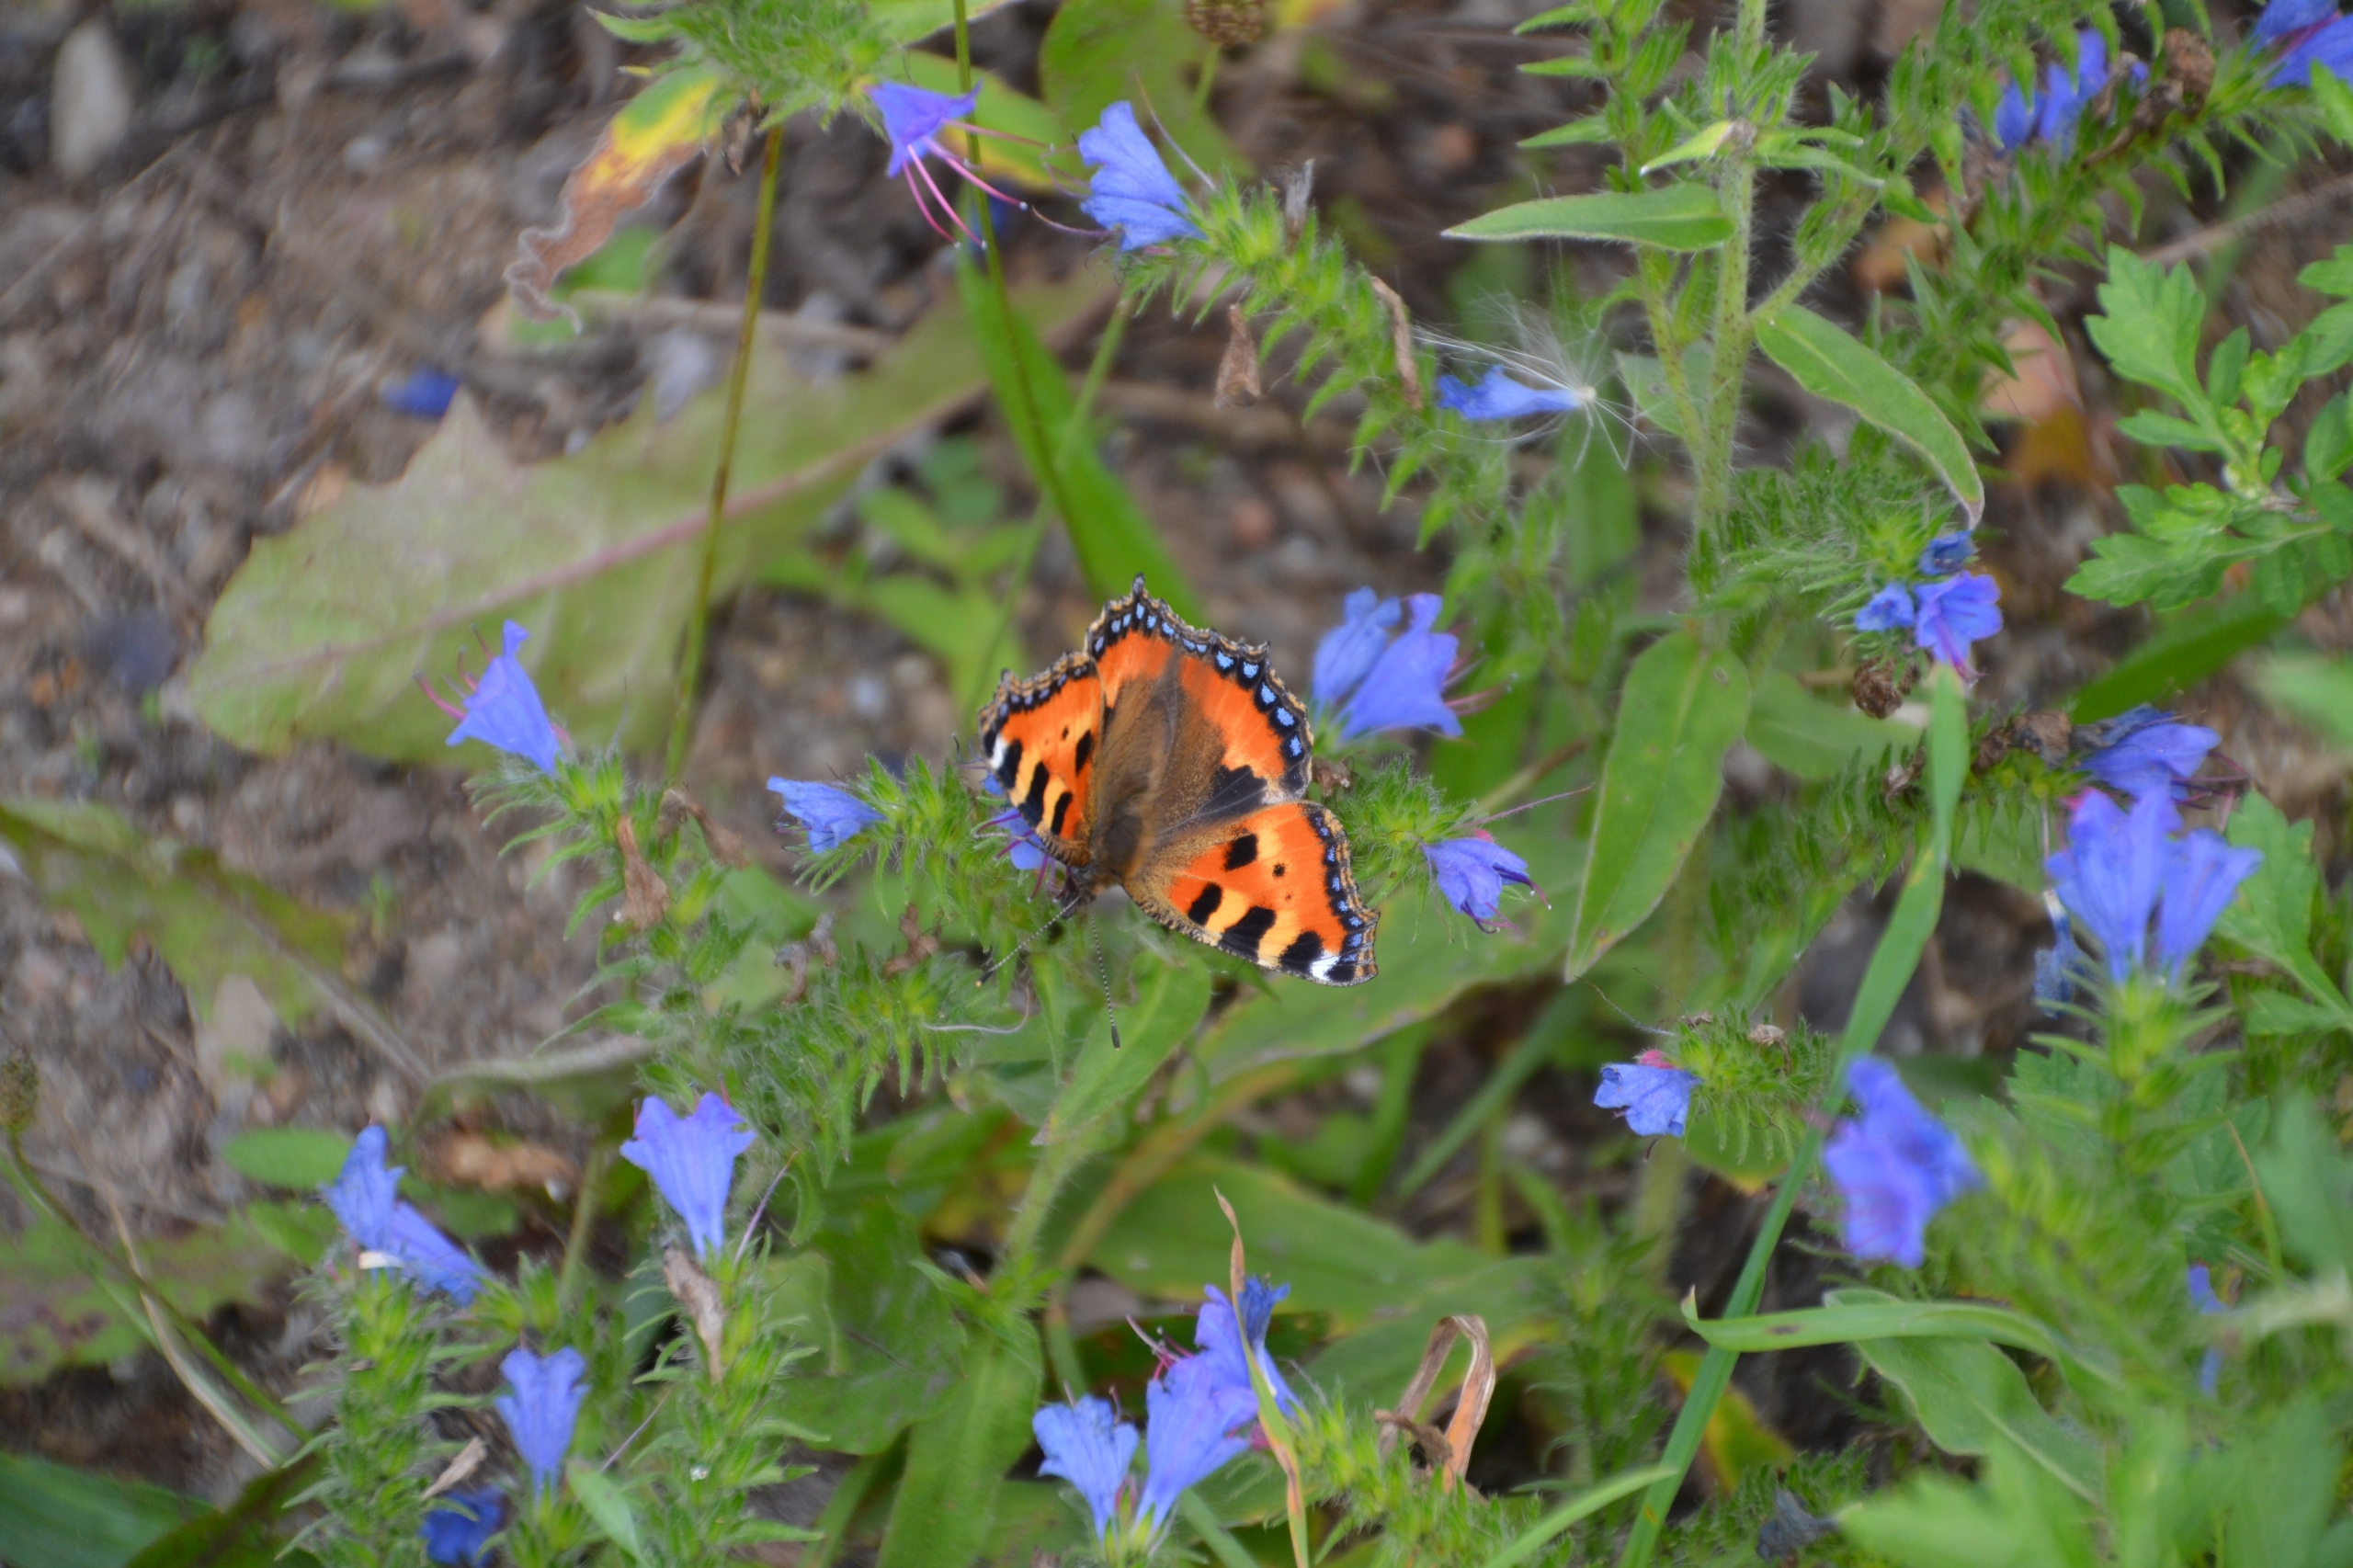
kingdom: Animalia
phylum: Arthropoda
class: Insecta
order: Lepidoptera
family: Nymphalidae
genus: Aglais
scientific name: Aglais urticae
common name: Nældens takvinge
